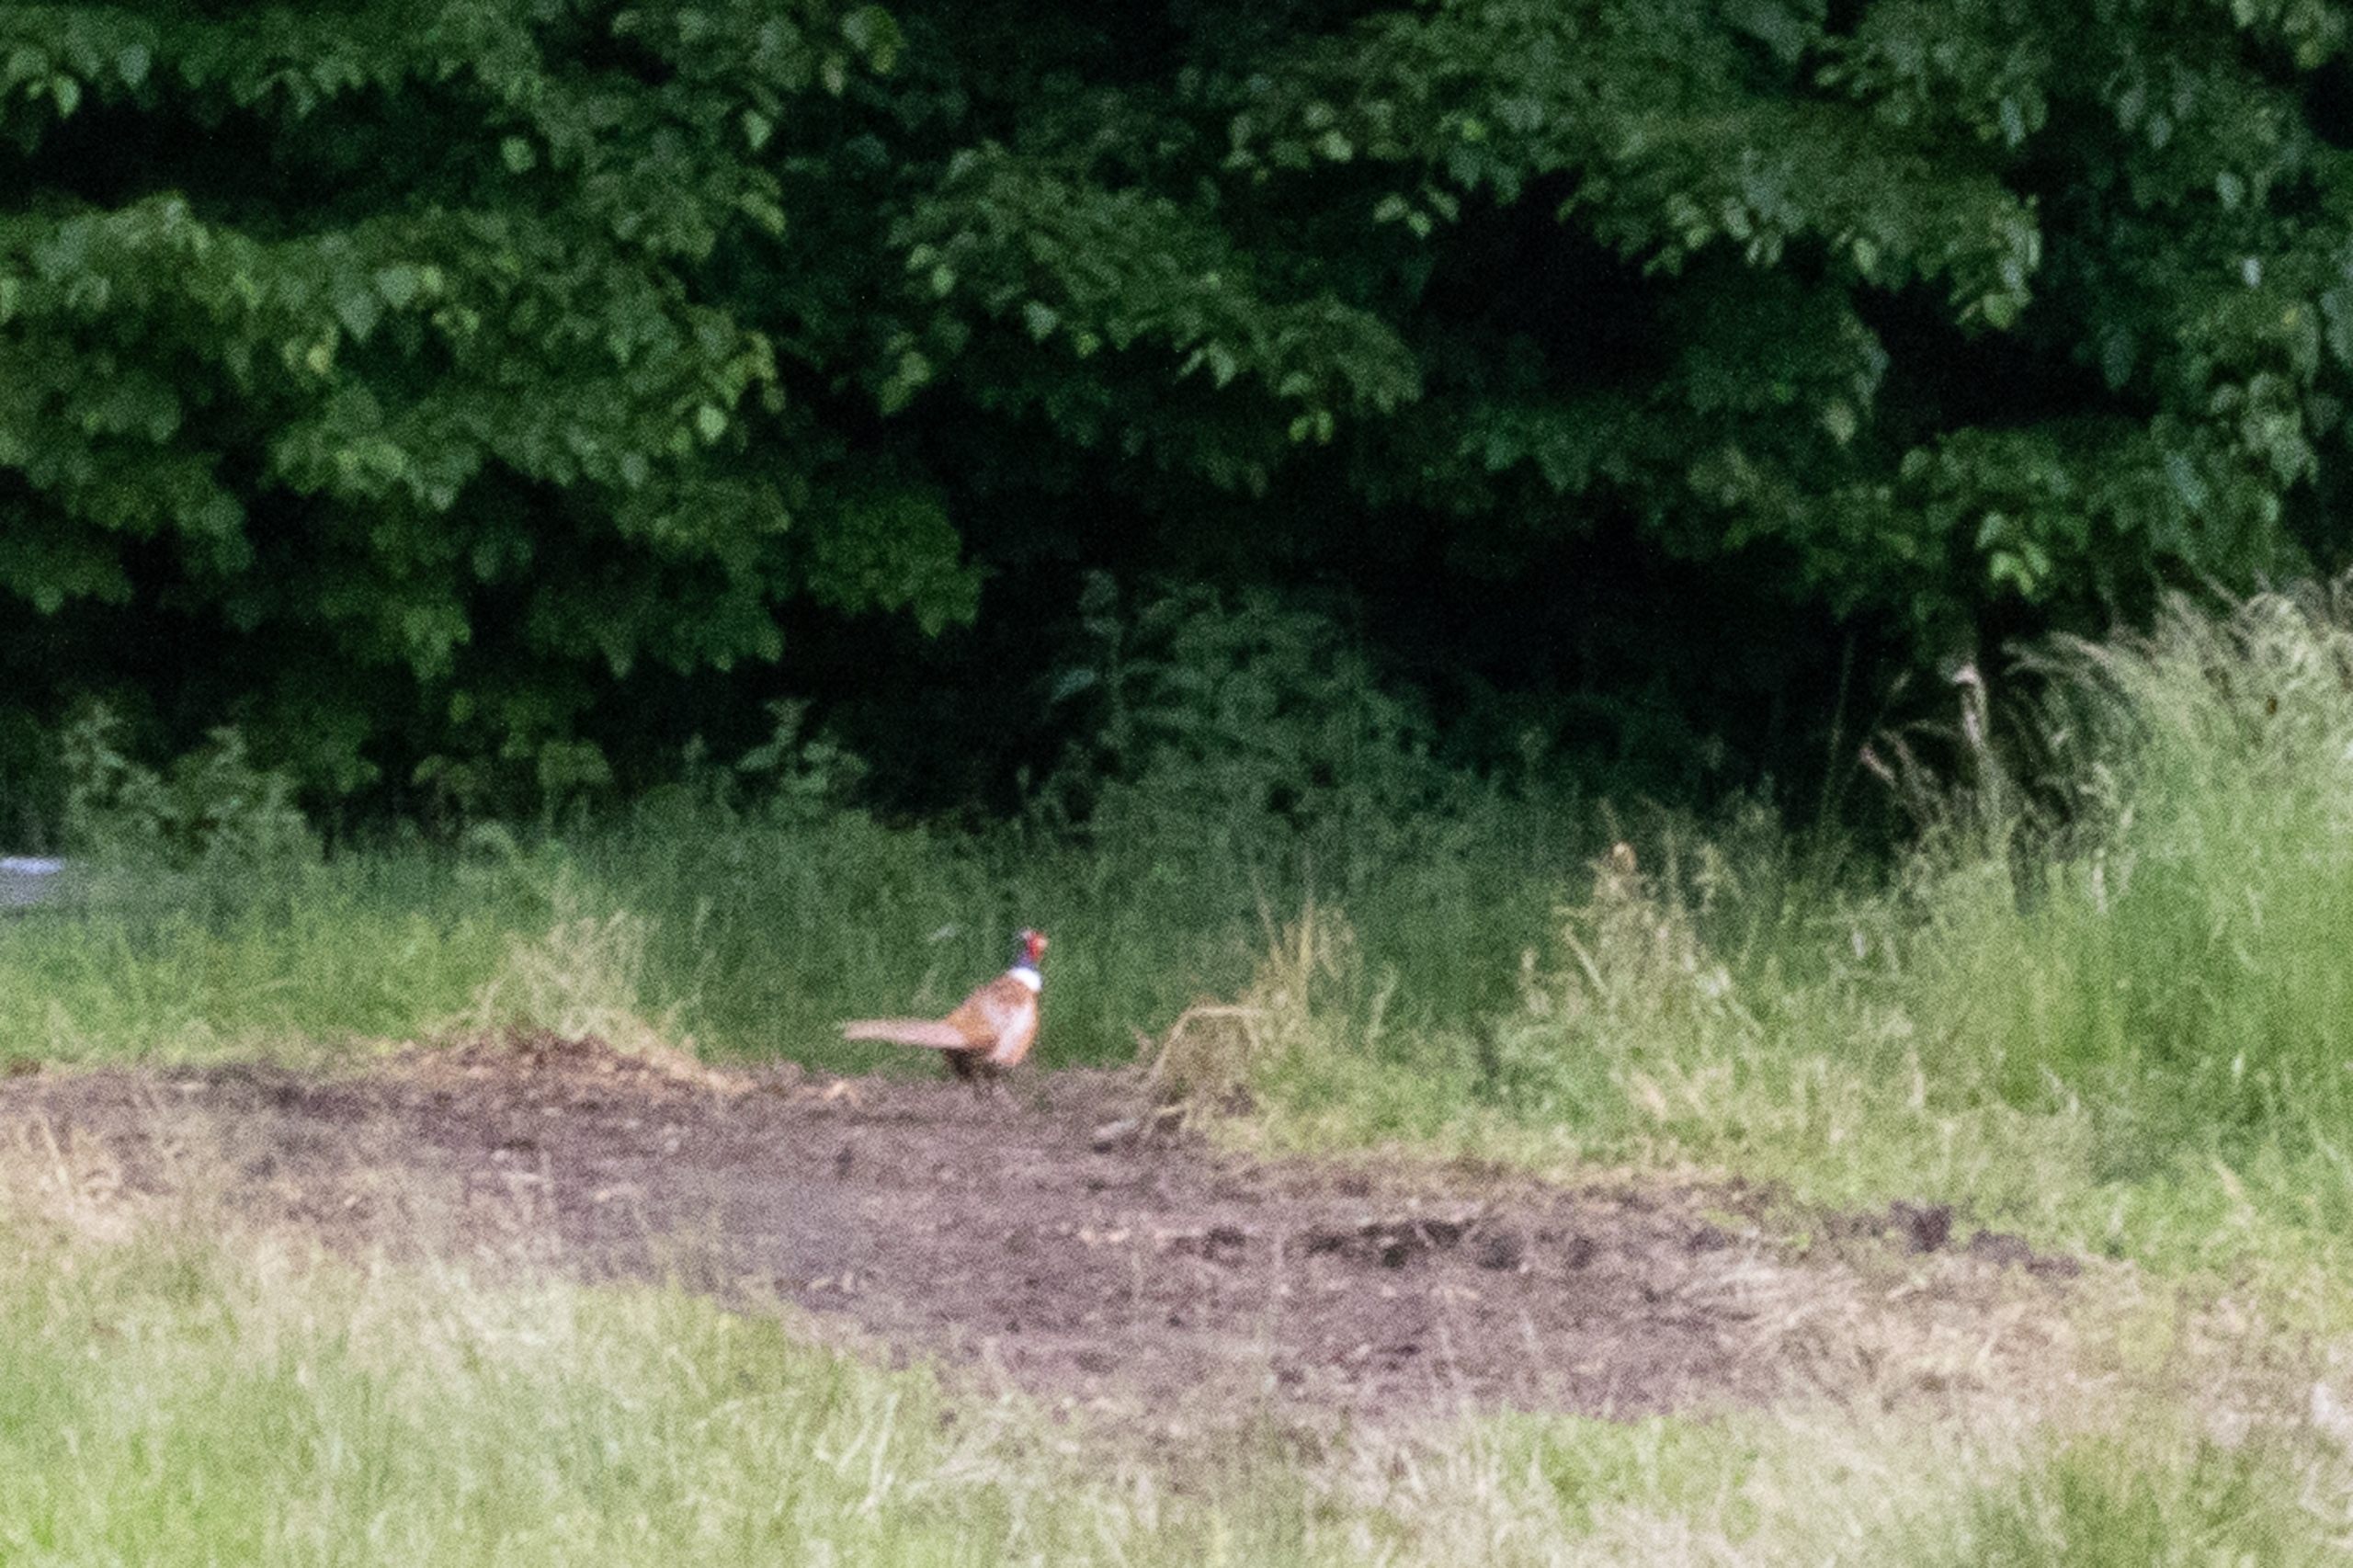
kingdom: Animalia
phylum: Chordata
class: Aves
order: Galliformes
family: Phasianidae
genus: Phasianus
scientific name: Phasianus colchicus
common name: Fasan
